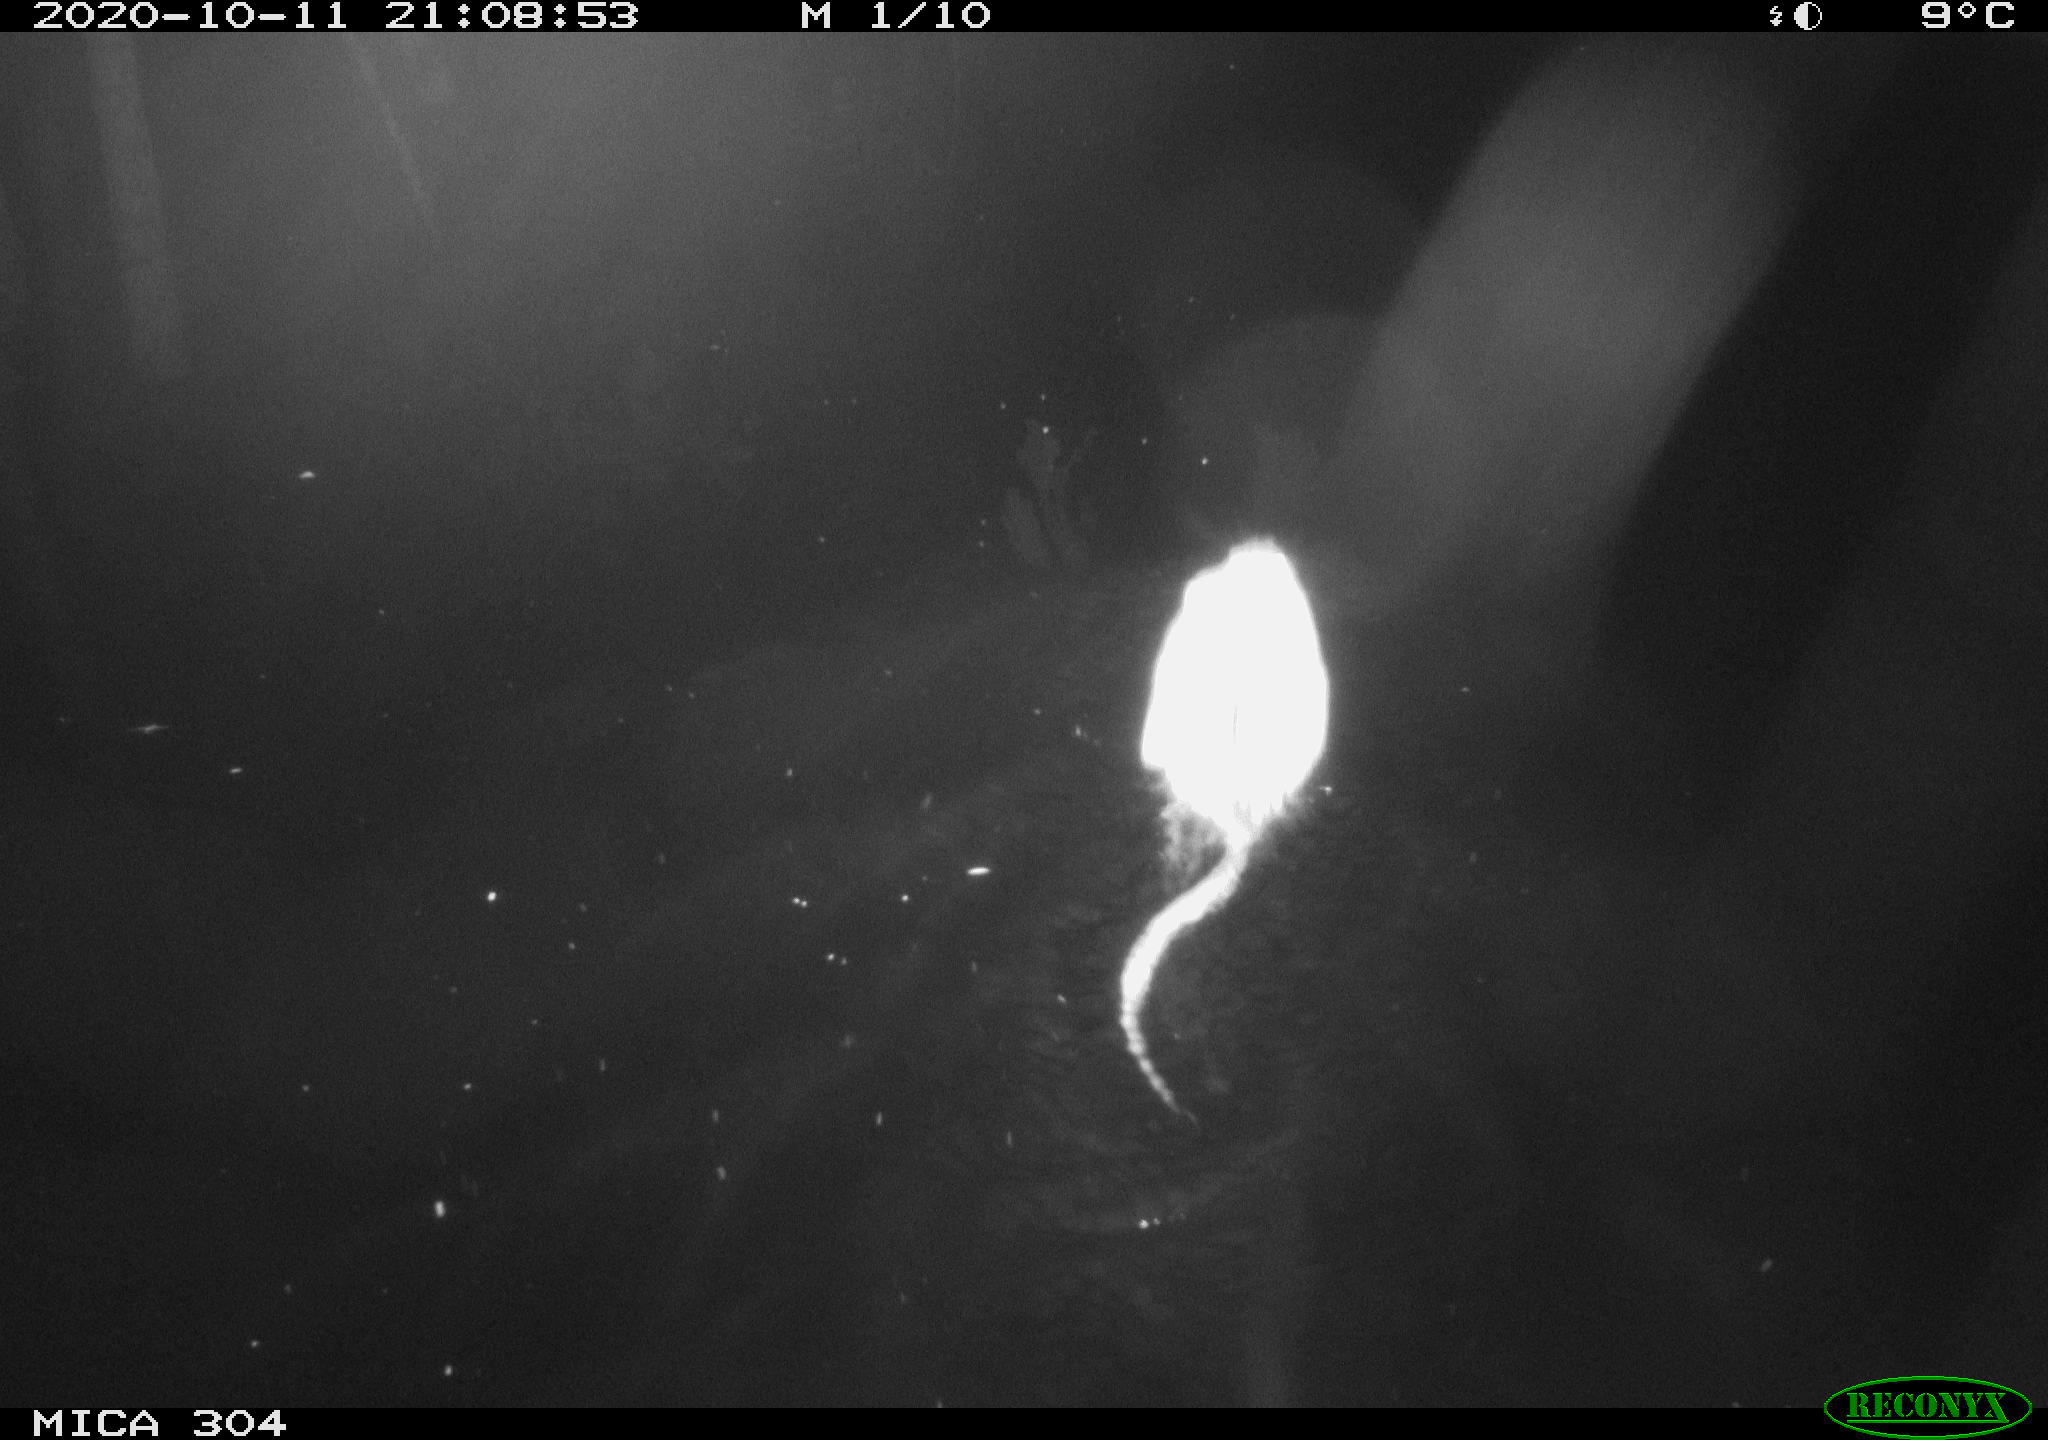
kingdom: Animalia
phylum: Chordata
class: Mammalia
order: Rodentia
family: Cricetidae
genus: Ondatra
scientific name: Ondatra zibethicus
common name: Muskrat
